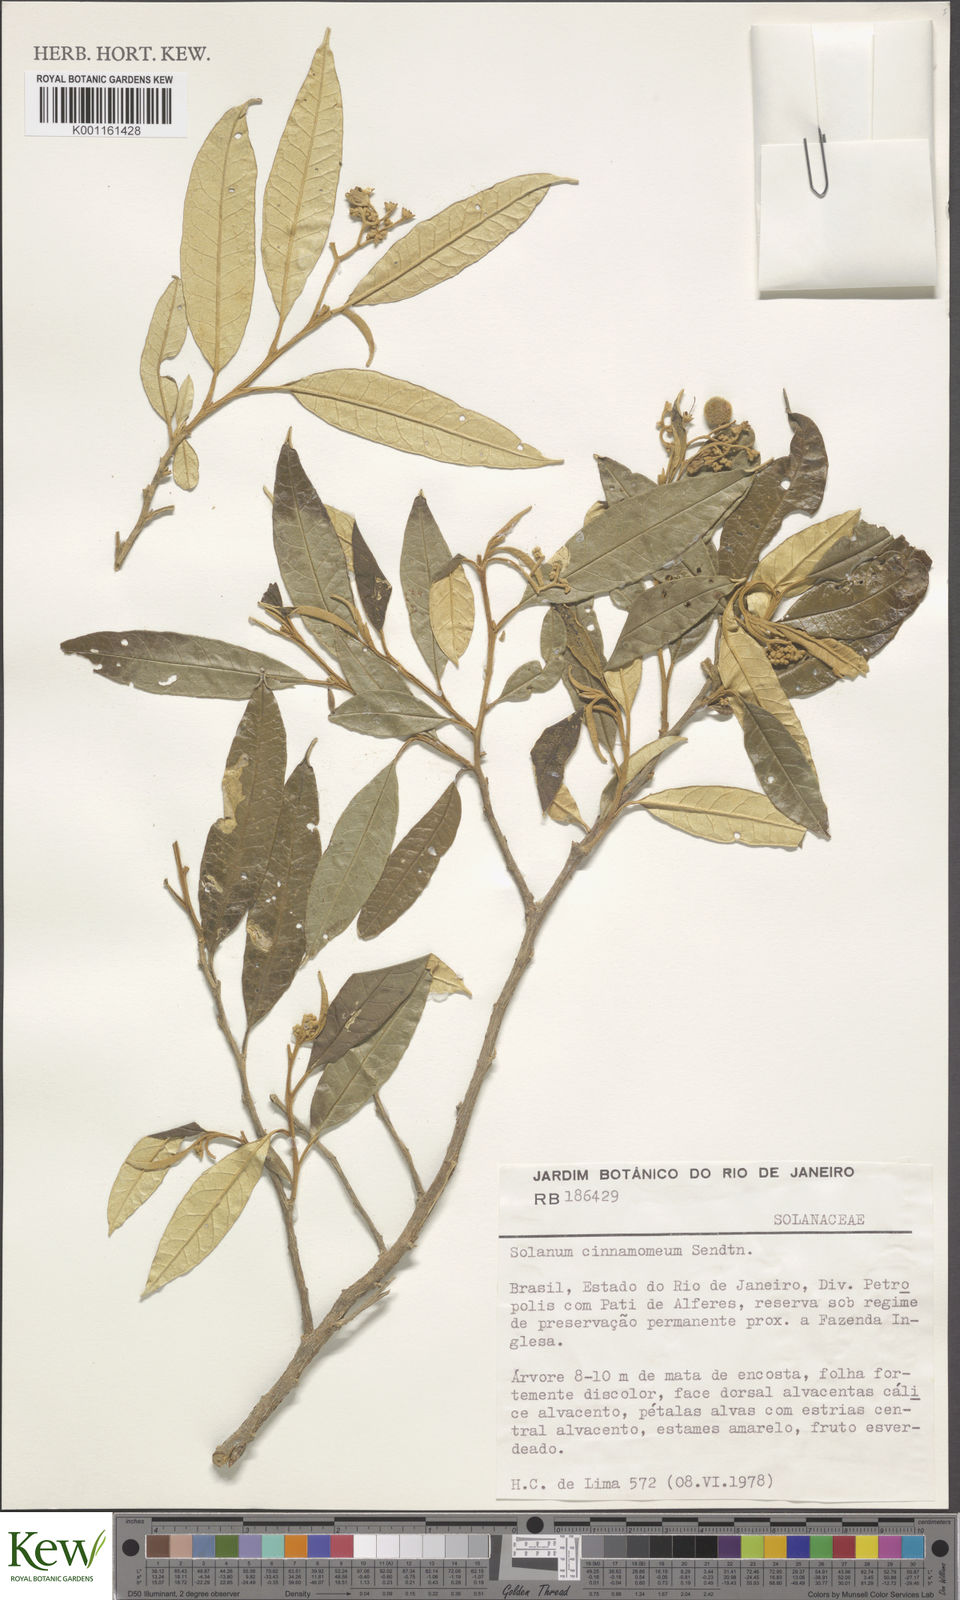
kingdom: Plantae
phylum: Tracheophyta
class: Magnoliopsida
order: Solanales
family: Solanaceae
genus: Solanum
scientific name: Solanum cinnamomeum
